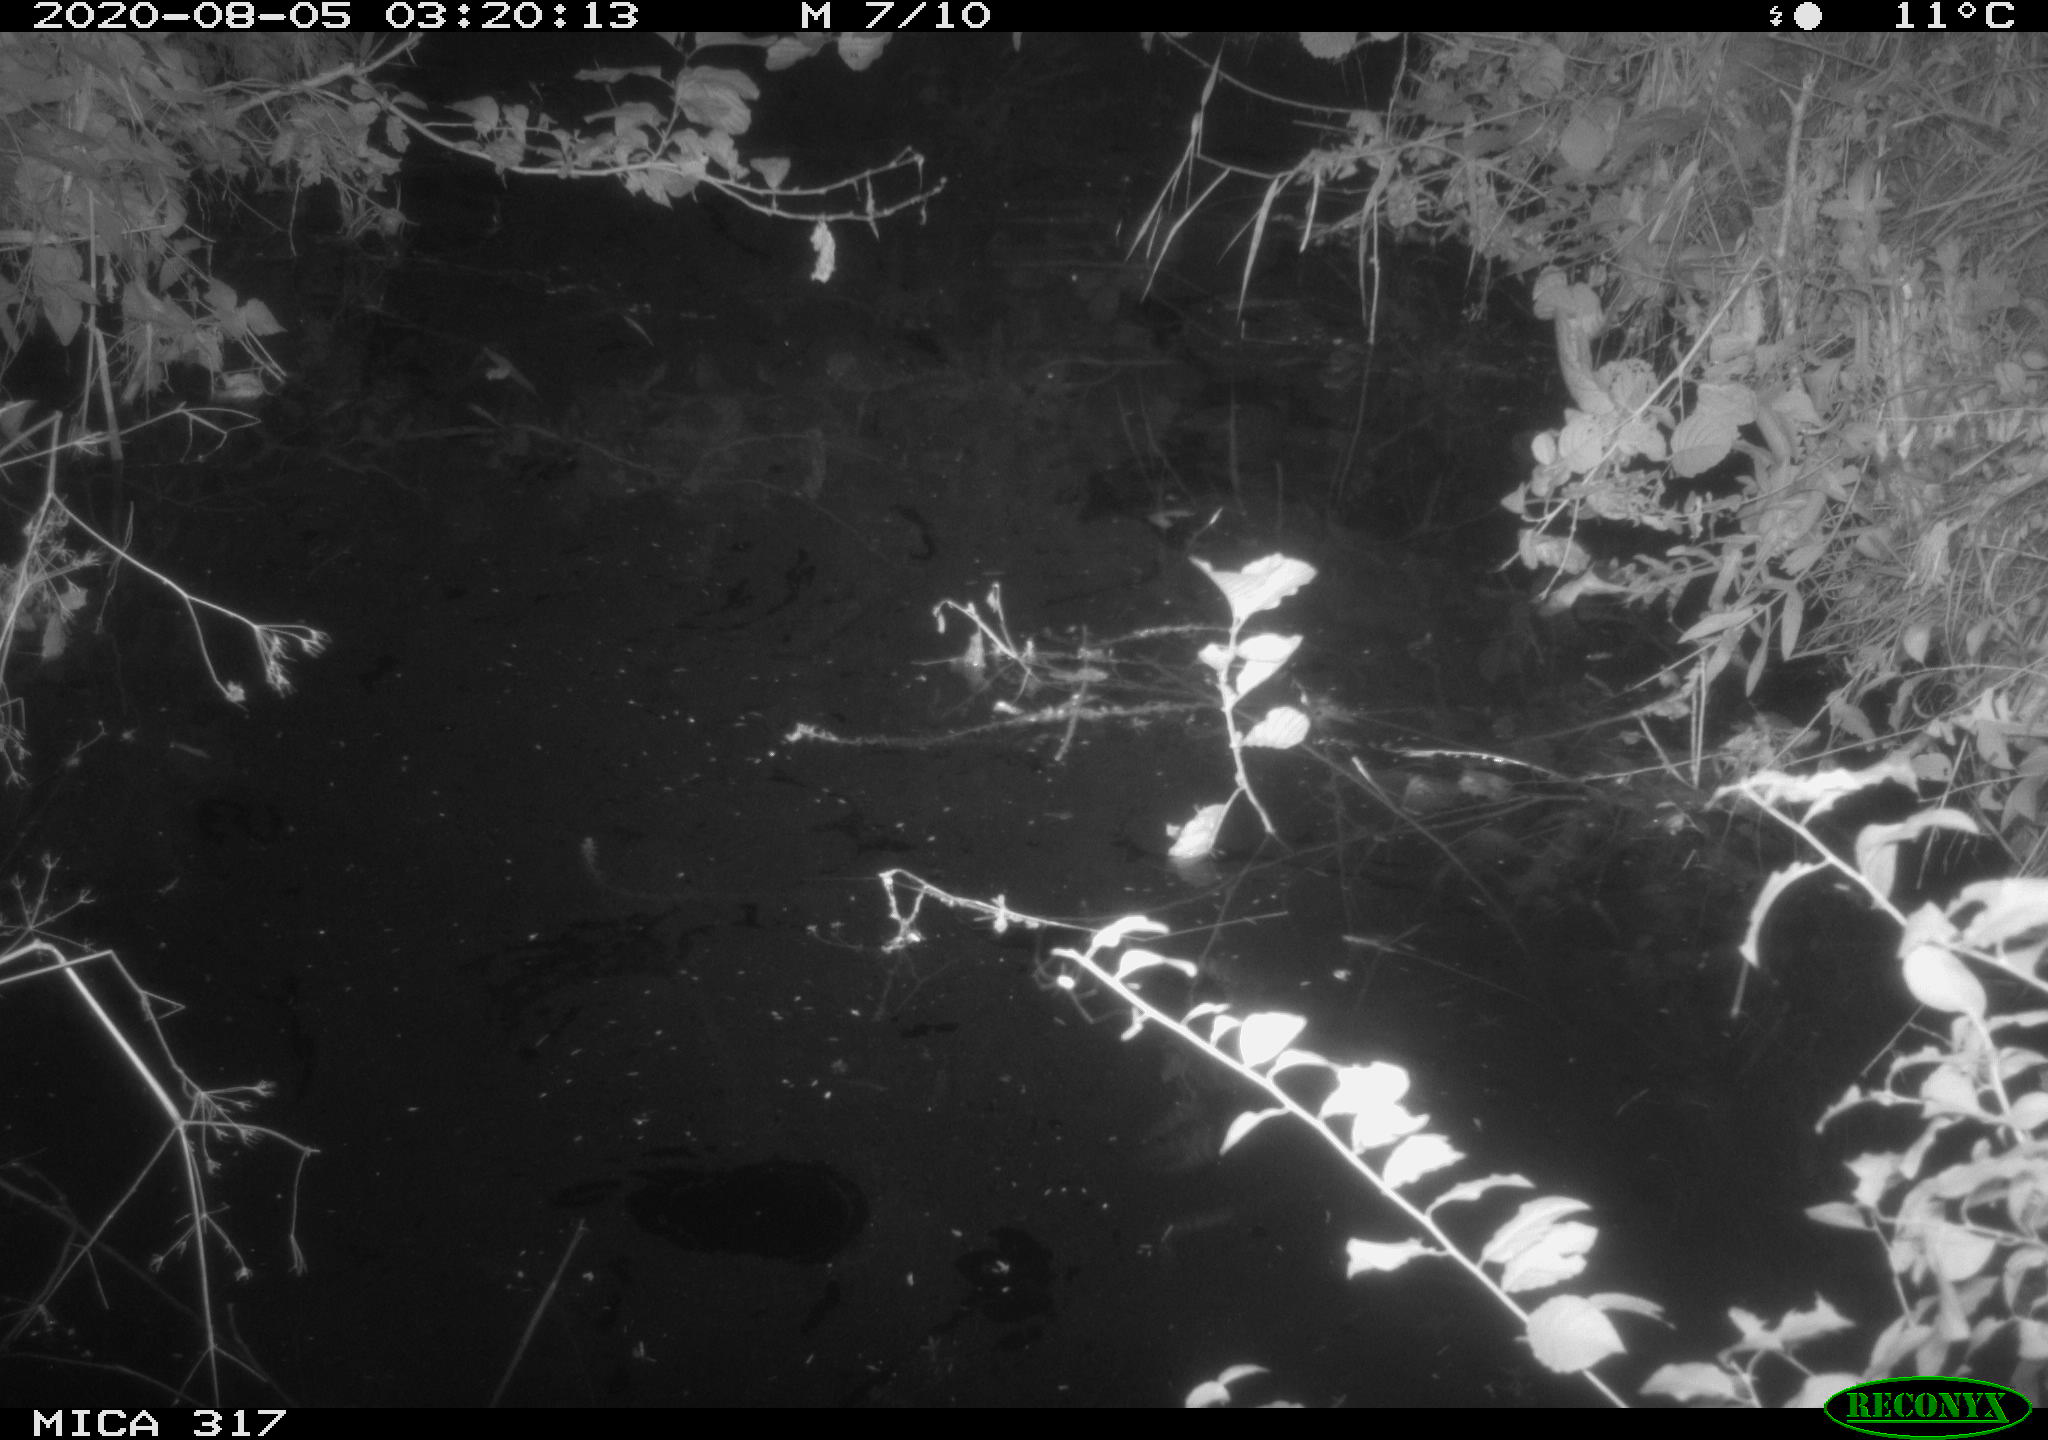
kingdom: Animalia
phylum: Chordata
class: Aves
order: Anseriformes
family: Anatidae
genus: Anas
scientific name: Anas platyrhynchos
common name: Mallard
